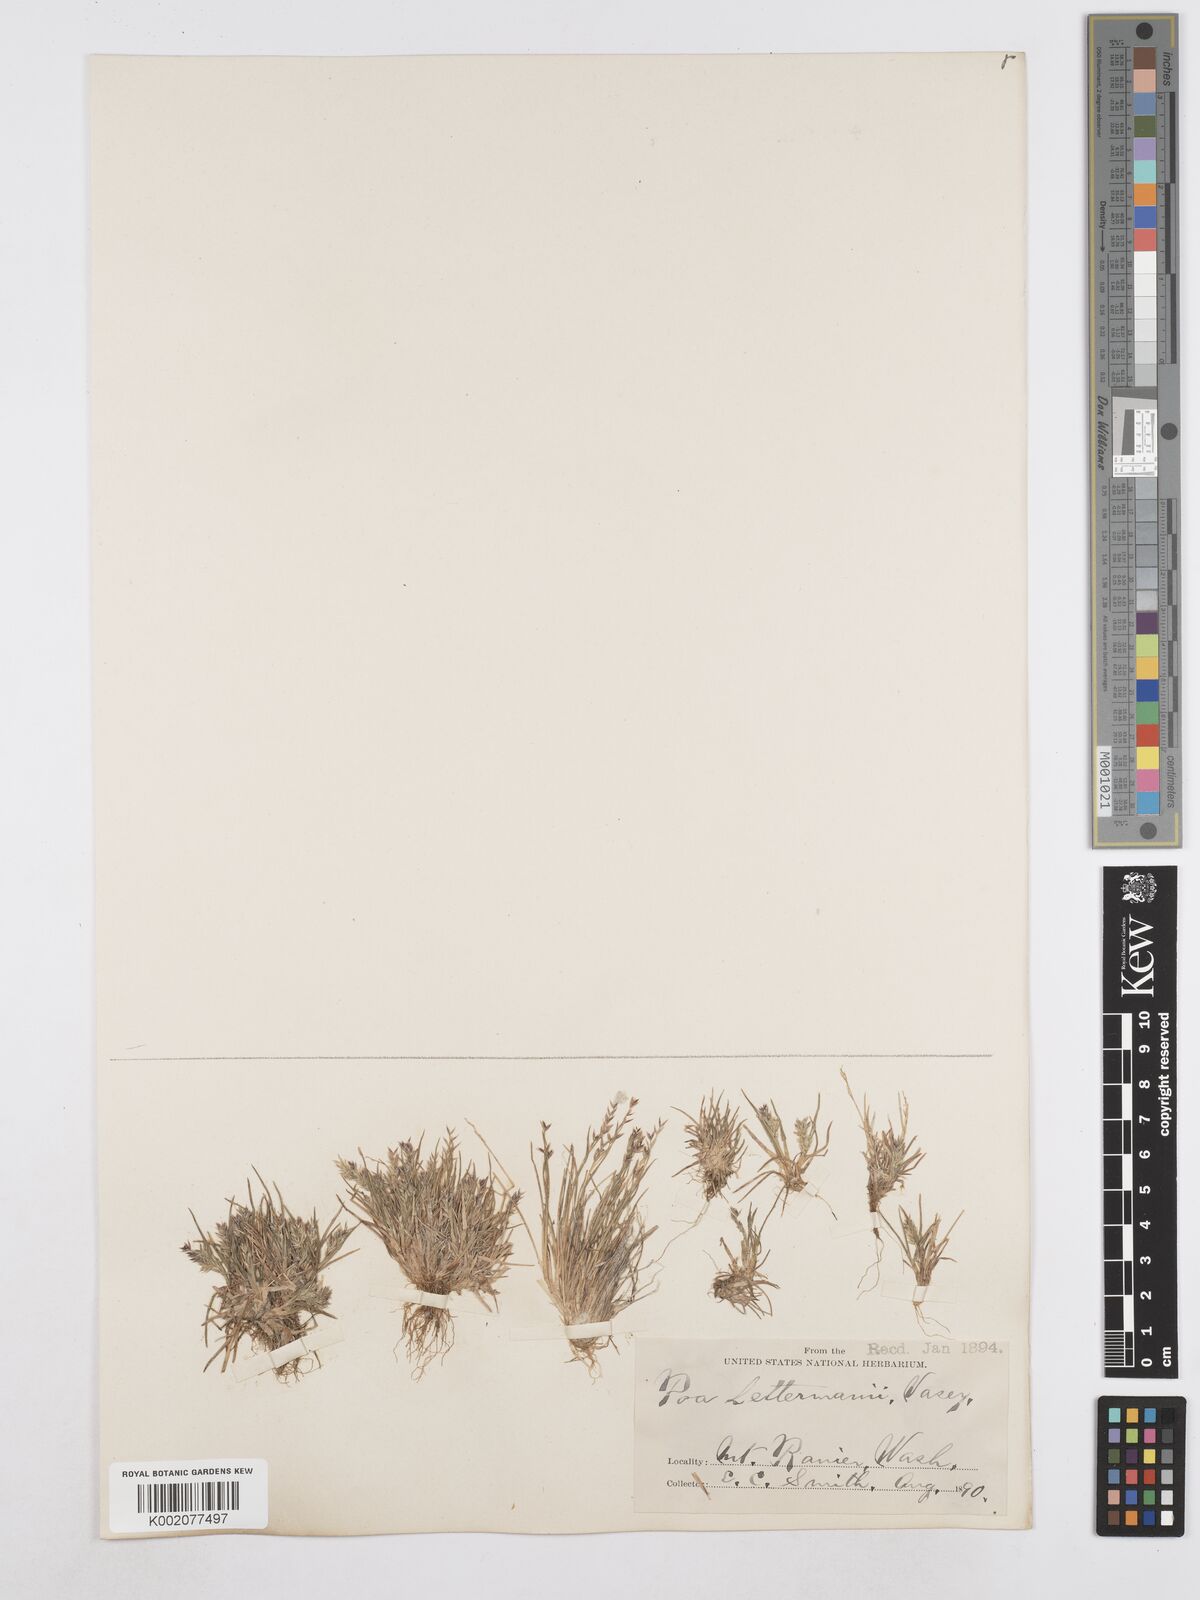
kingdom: Plantae
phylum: Tracheophyta
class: Liliopsida
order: Poales
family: Poaceae
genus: Poa
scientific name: Poa lettermanii
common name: Letterman's bluegrass
